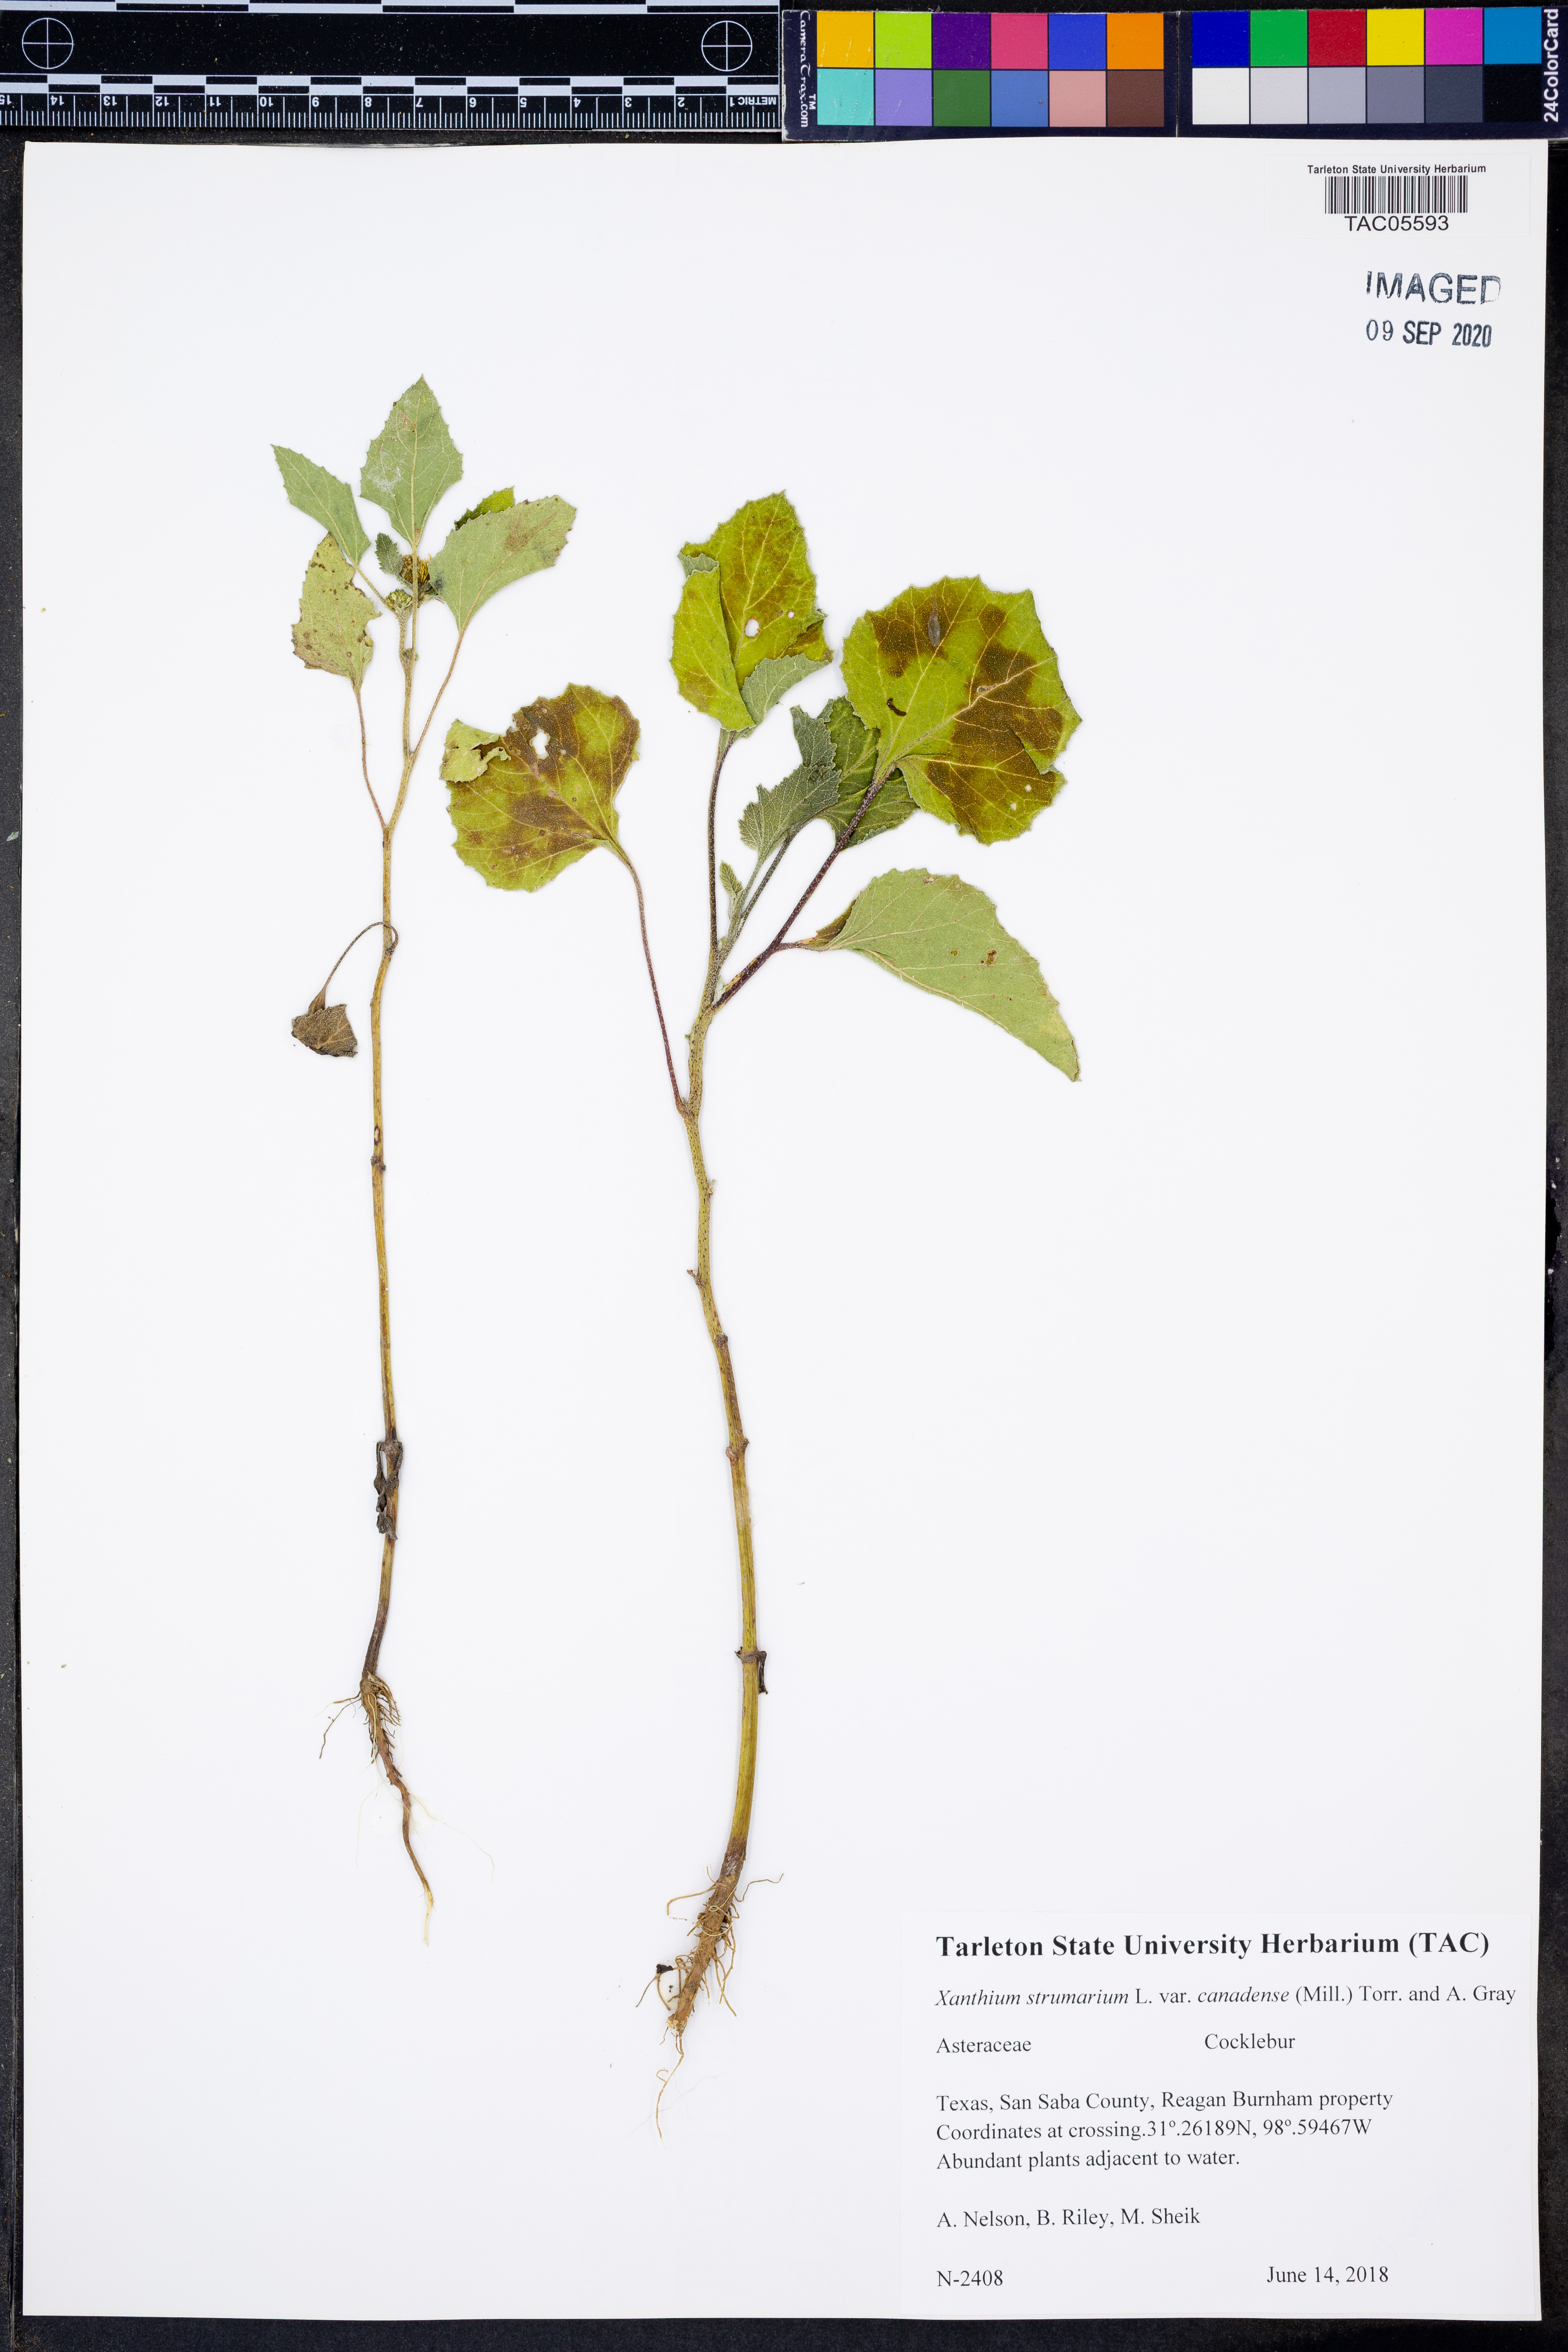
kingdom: Plantae
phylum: Tracheophyta
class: Magnoliopsida
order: Asterales
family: Asteraceae
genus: Xanthium
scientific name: Xanthium orientale
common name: Californian burr
